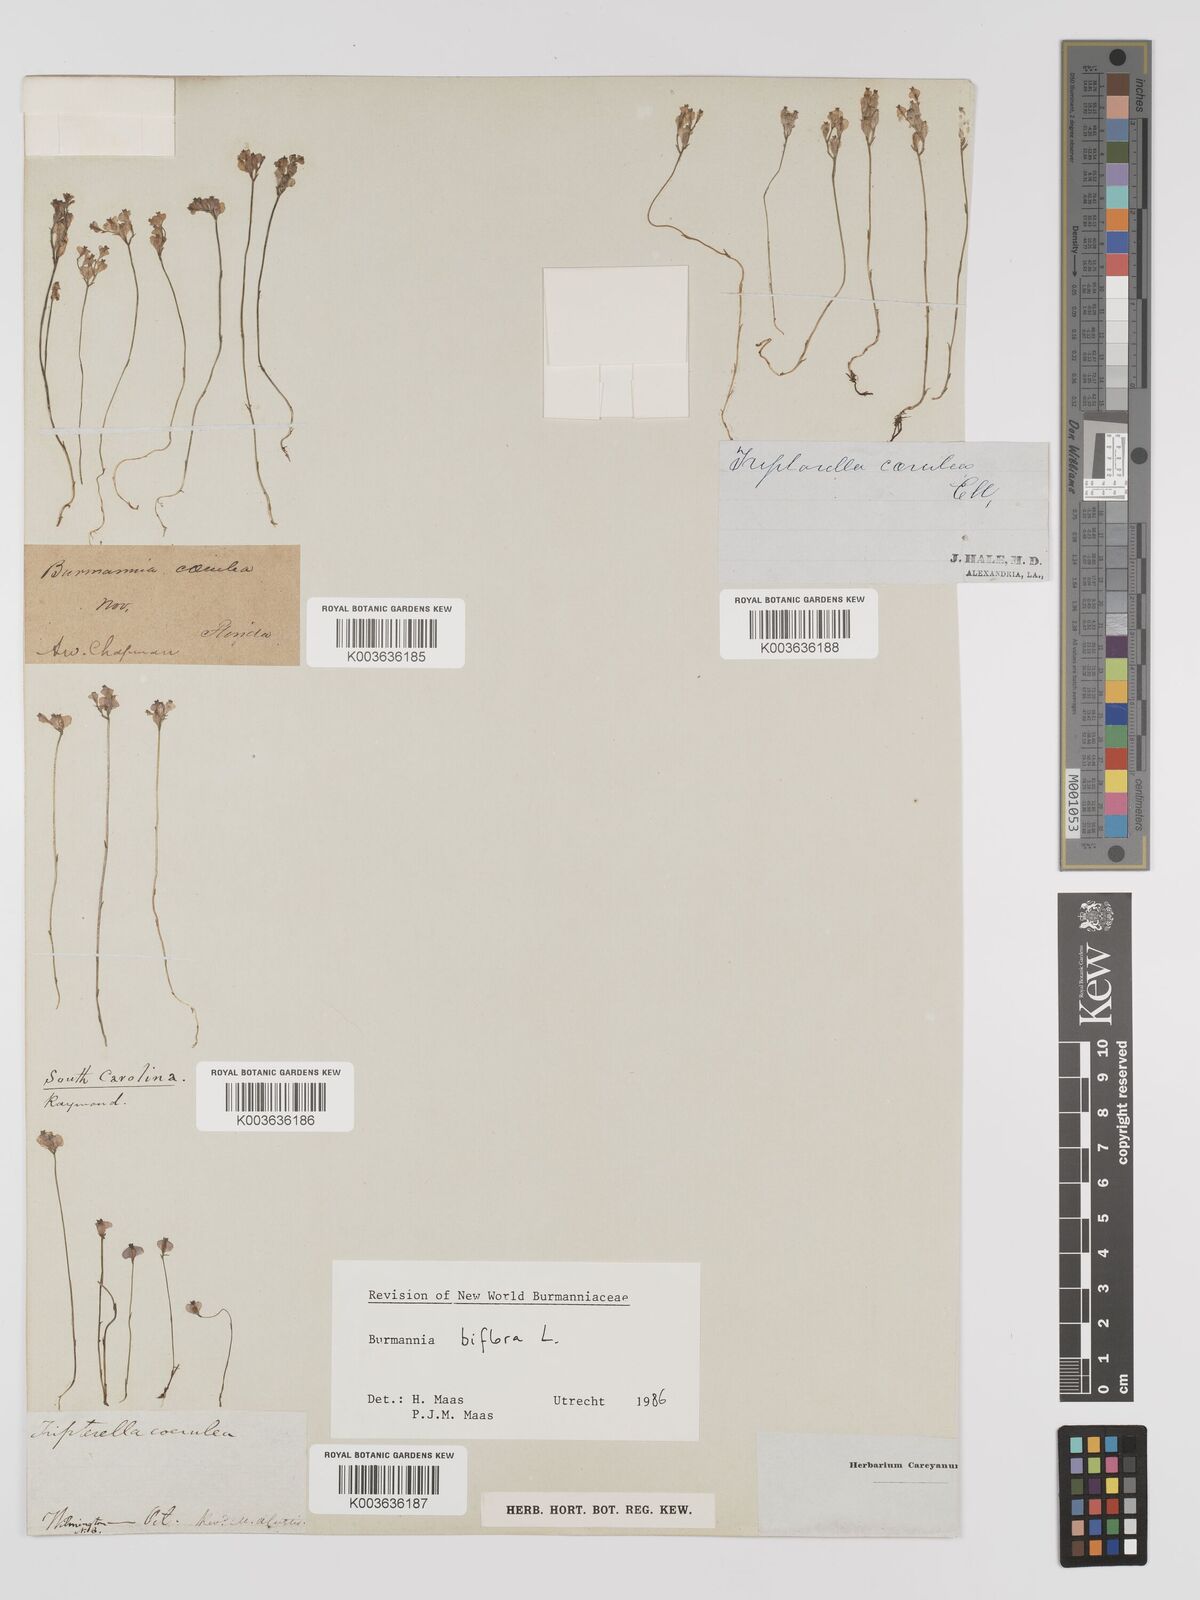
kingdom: Plantae
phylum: Tracheophyta
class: Liliopsida
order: Dioscoreales
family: Burmanniaceae
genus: Burmannia
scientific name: Burmannia biflora
